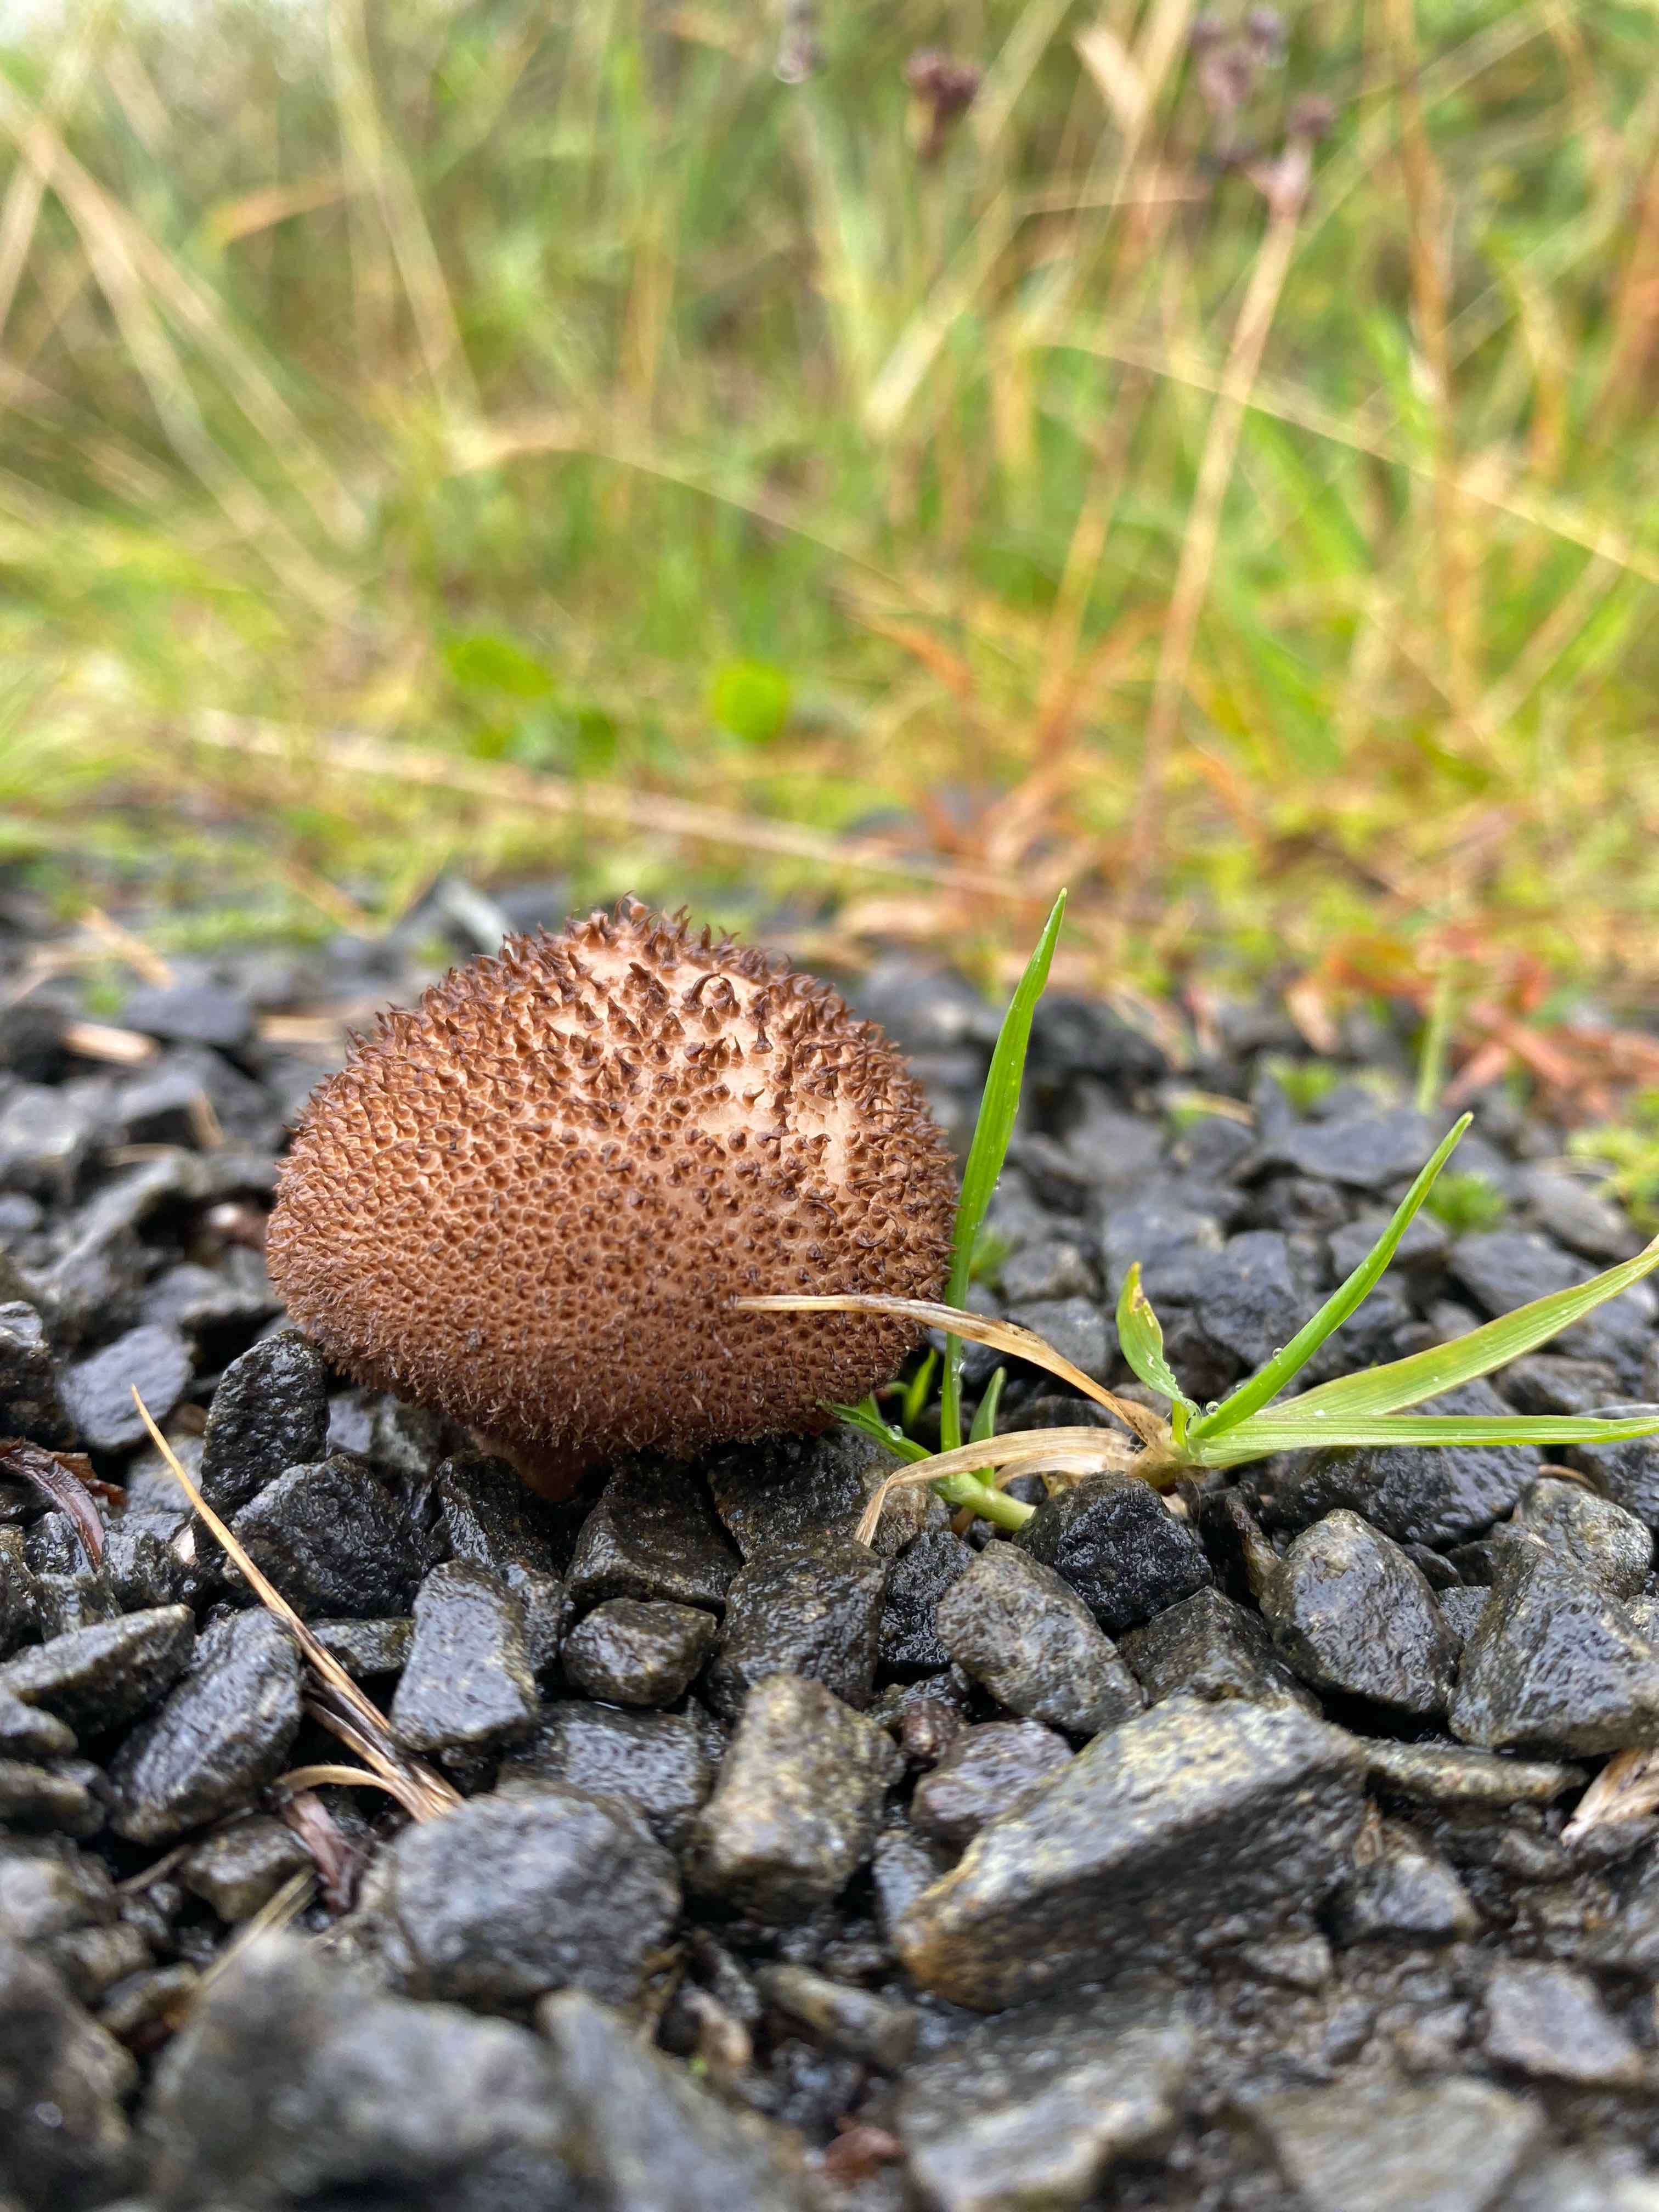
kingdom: Fungi
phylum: Basidiomycota
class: Agaricomycetes
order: Agaricales
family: Lycoperdaceae
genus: Lycoperdon
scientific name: Lycoperdon nigrescens
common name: sortagtig støvbold
